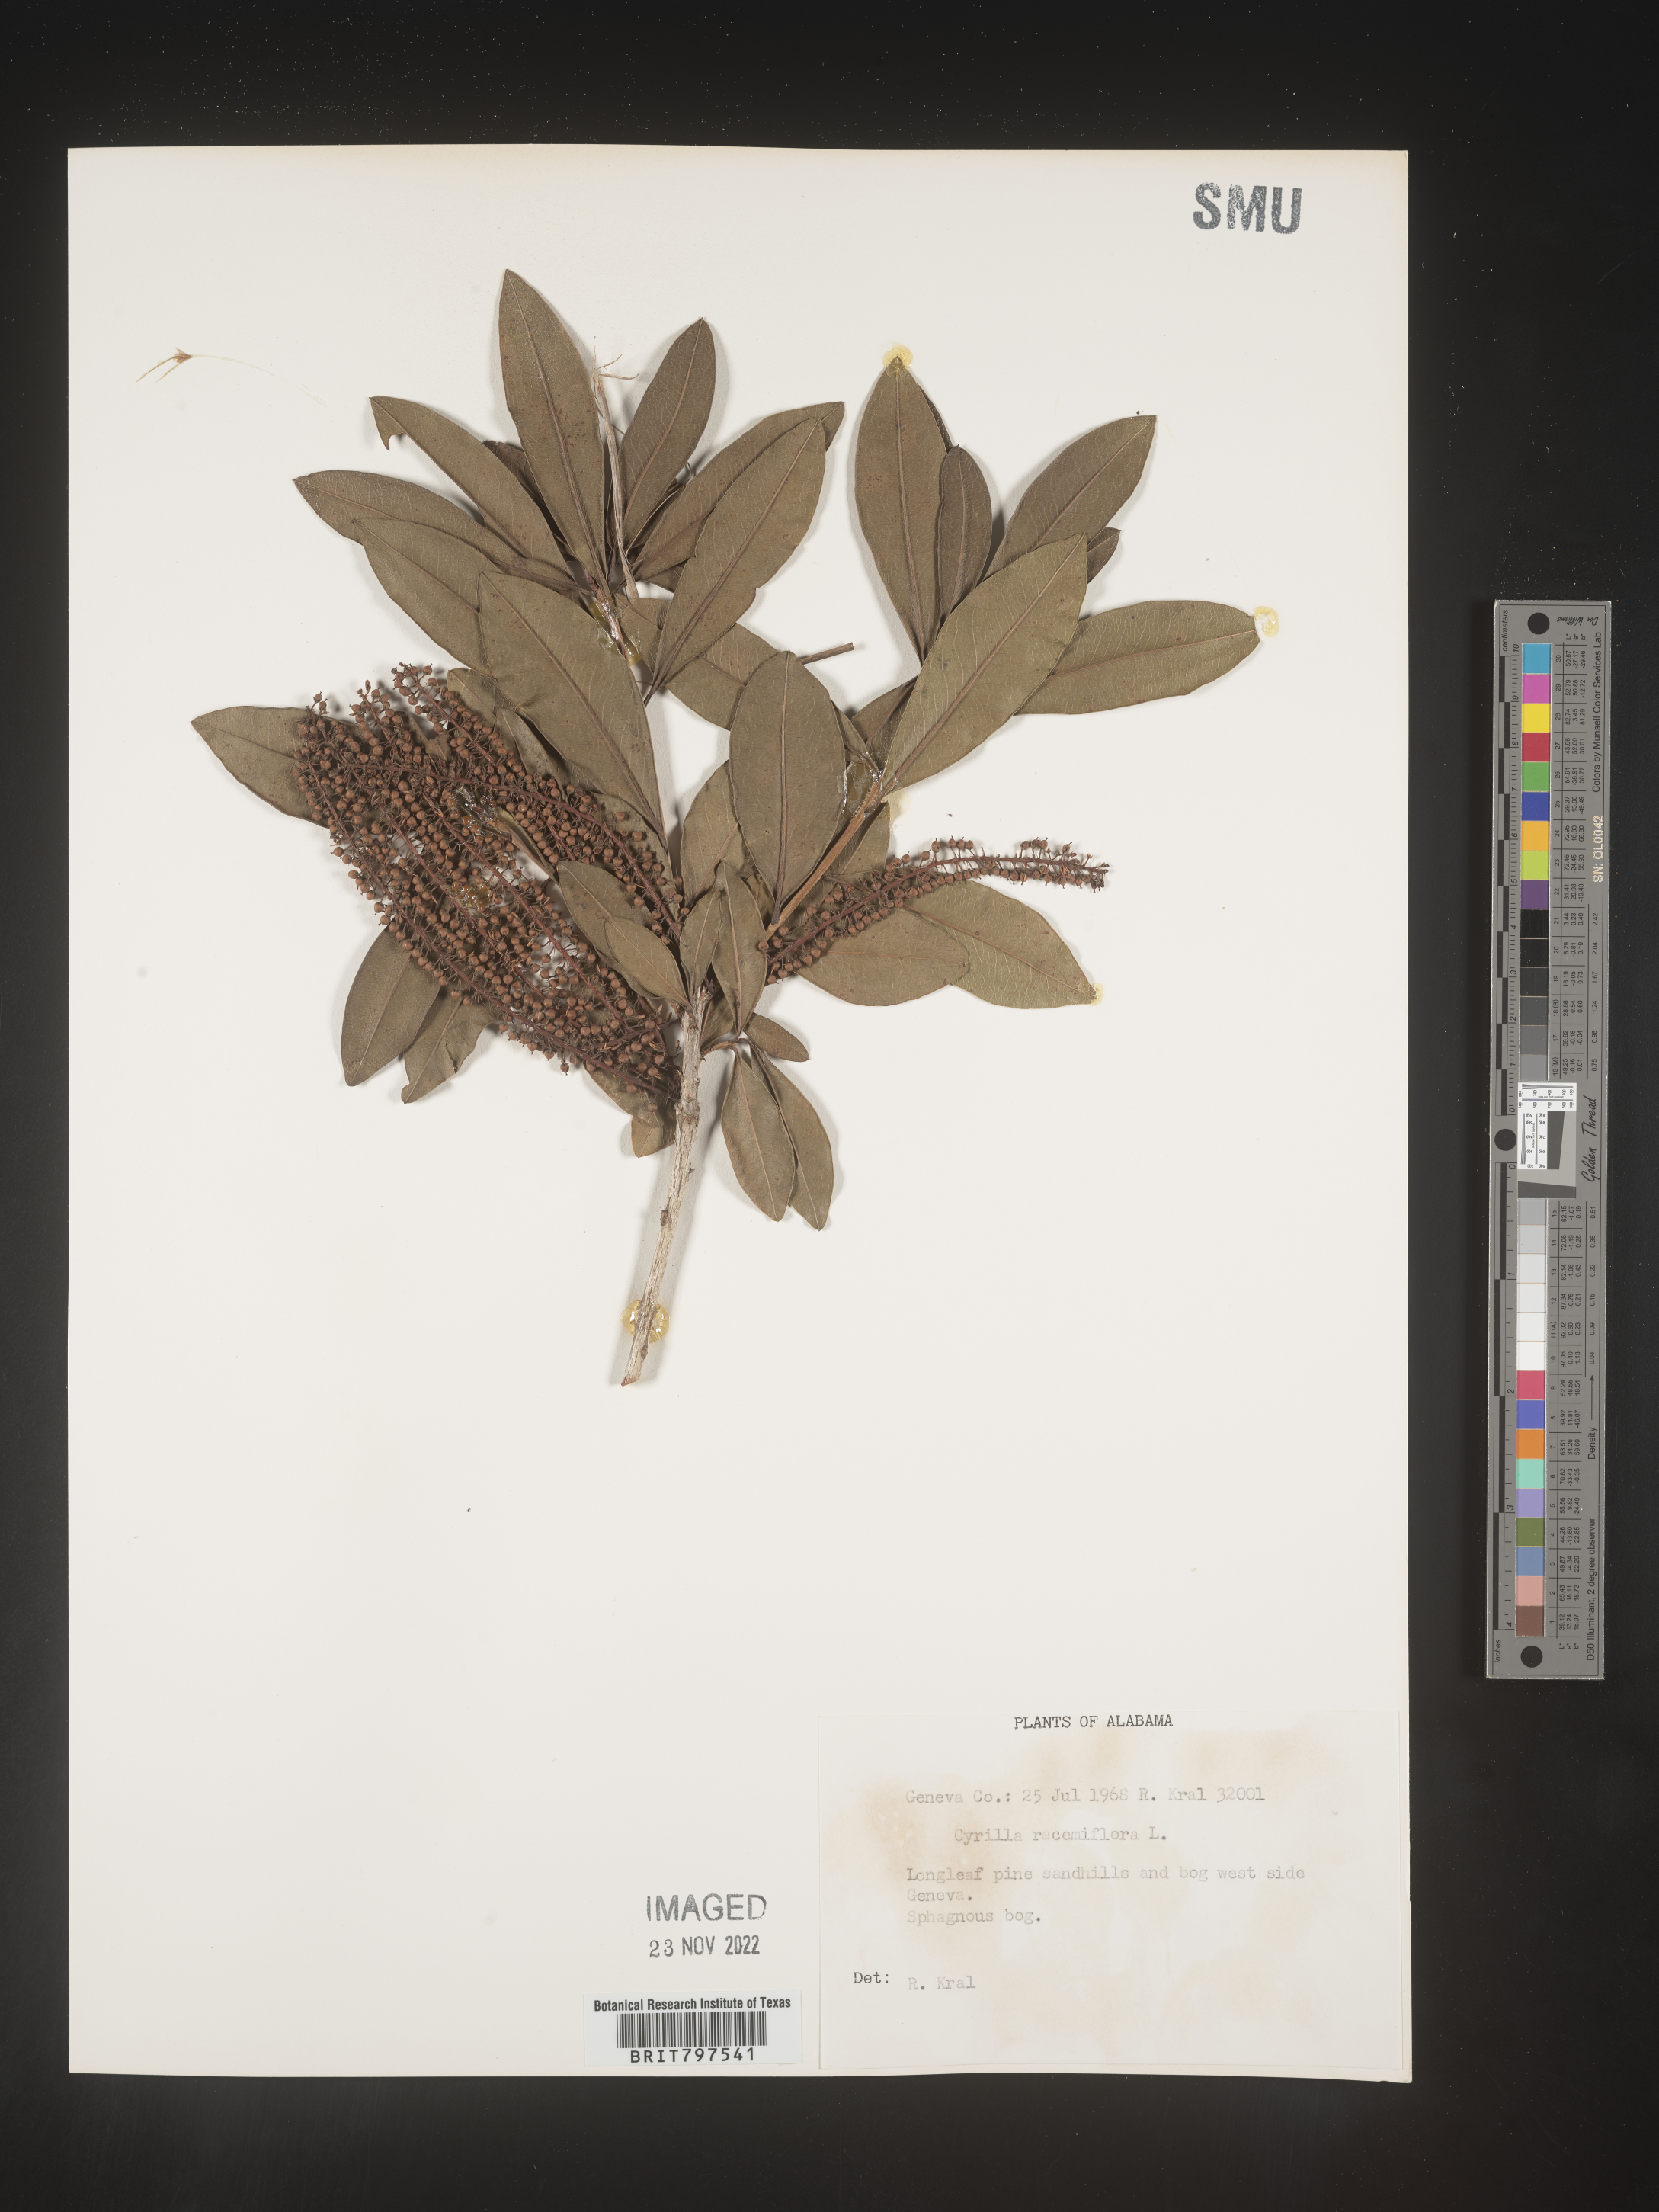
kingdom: Plantae
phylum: Tracheophyta
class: Magnoliopsida
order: Ericales
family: Cyrillaceae
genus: Cyrilla
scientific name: Cyrilla racemiflora
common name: Black titi
